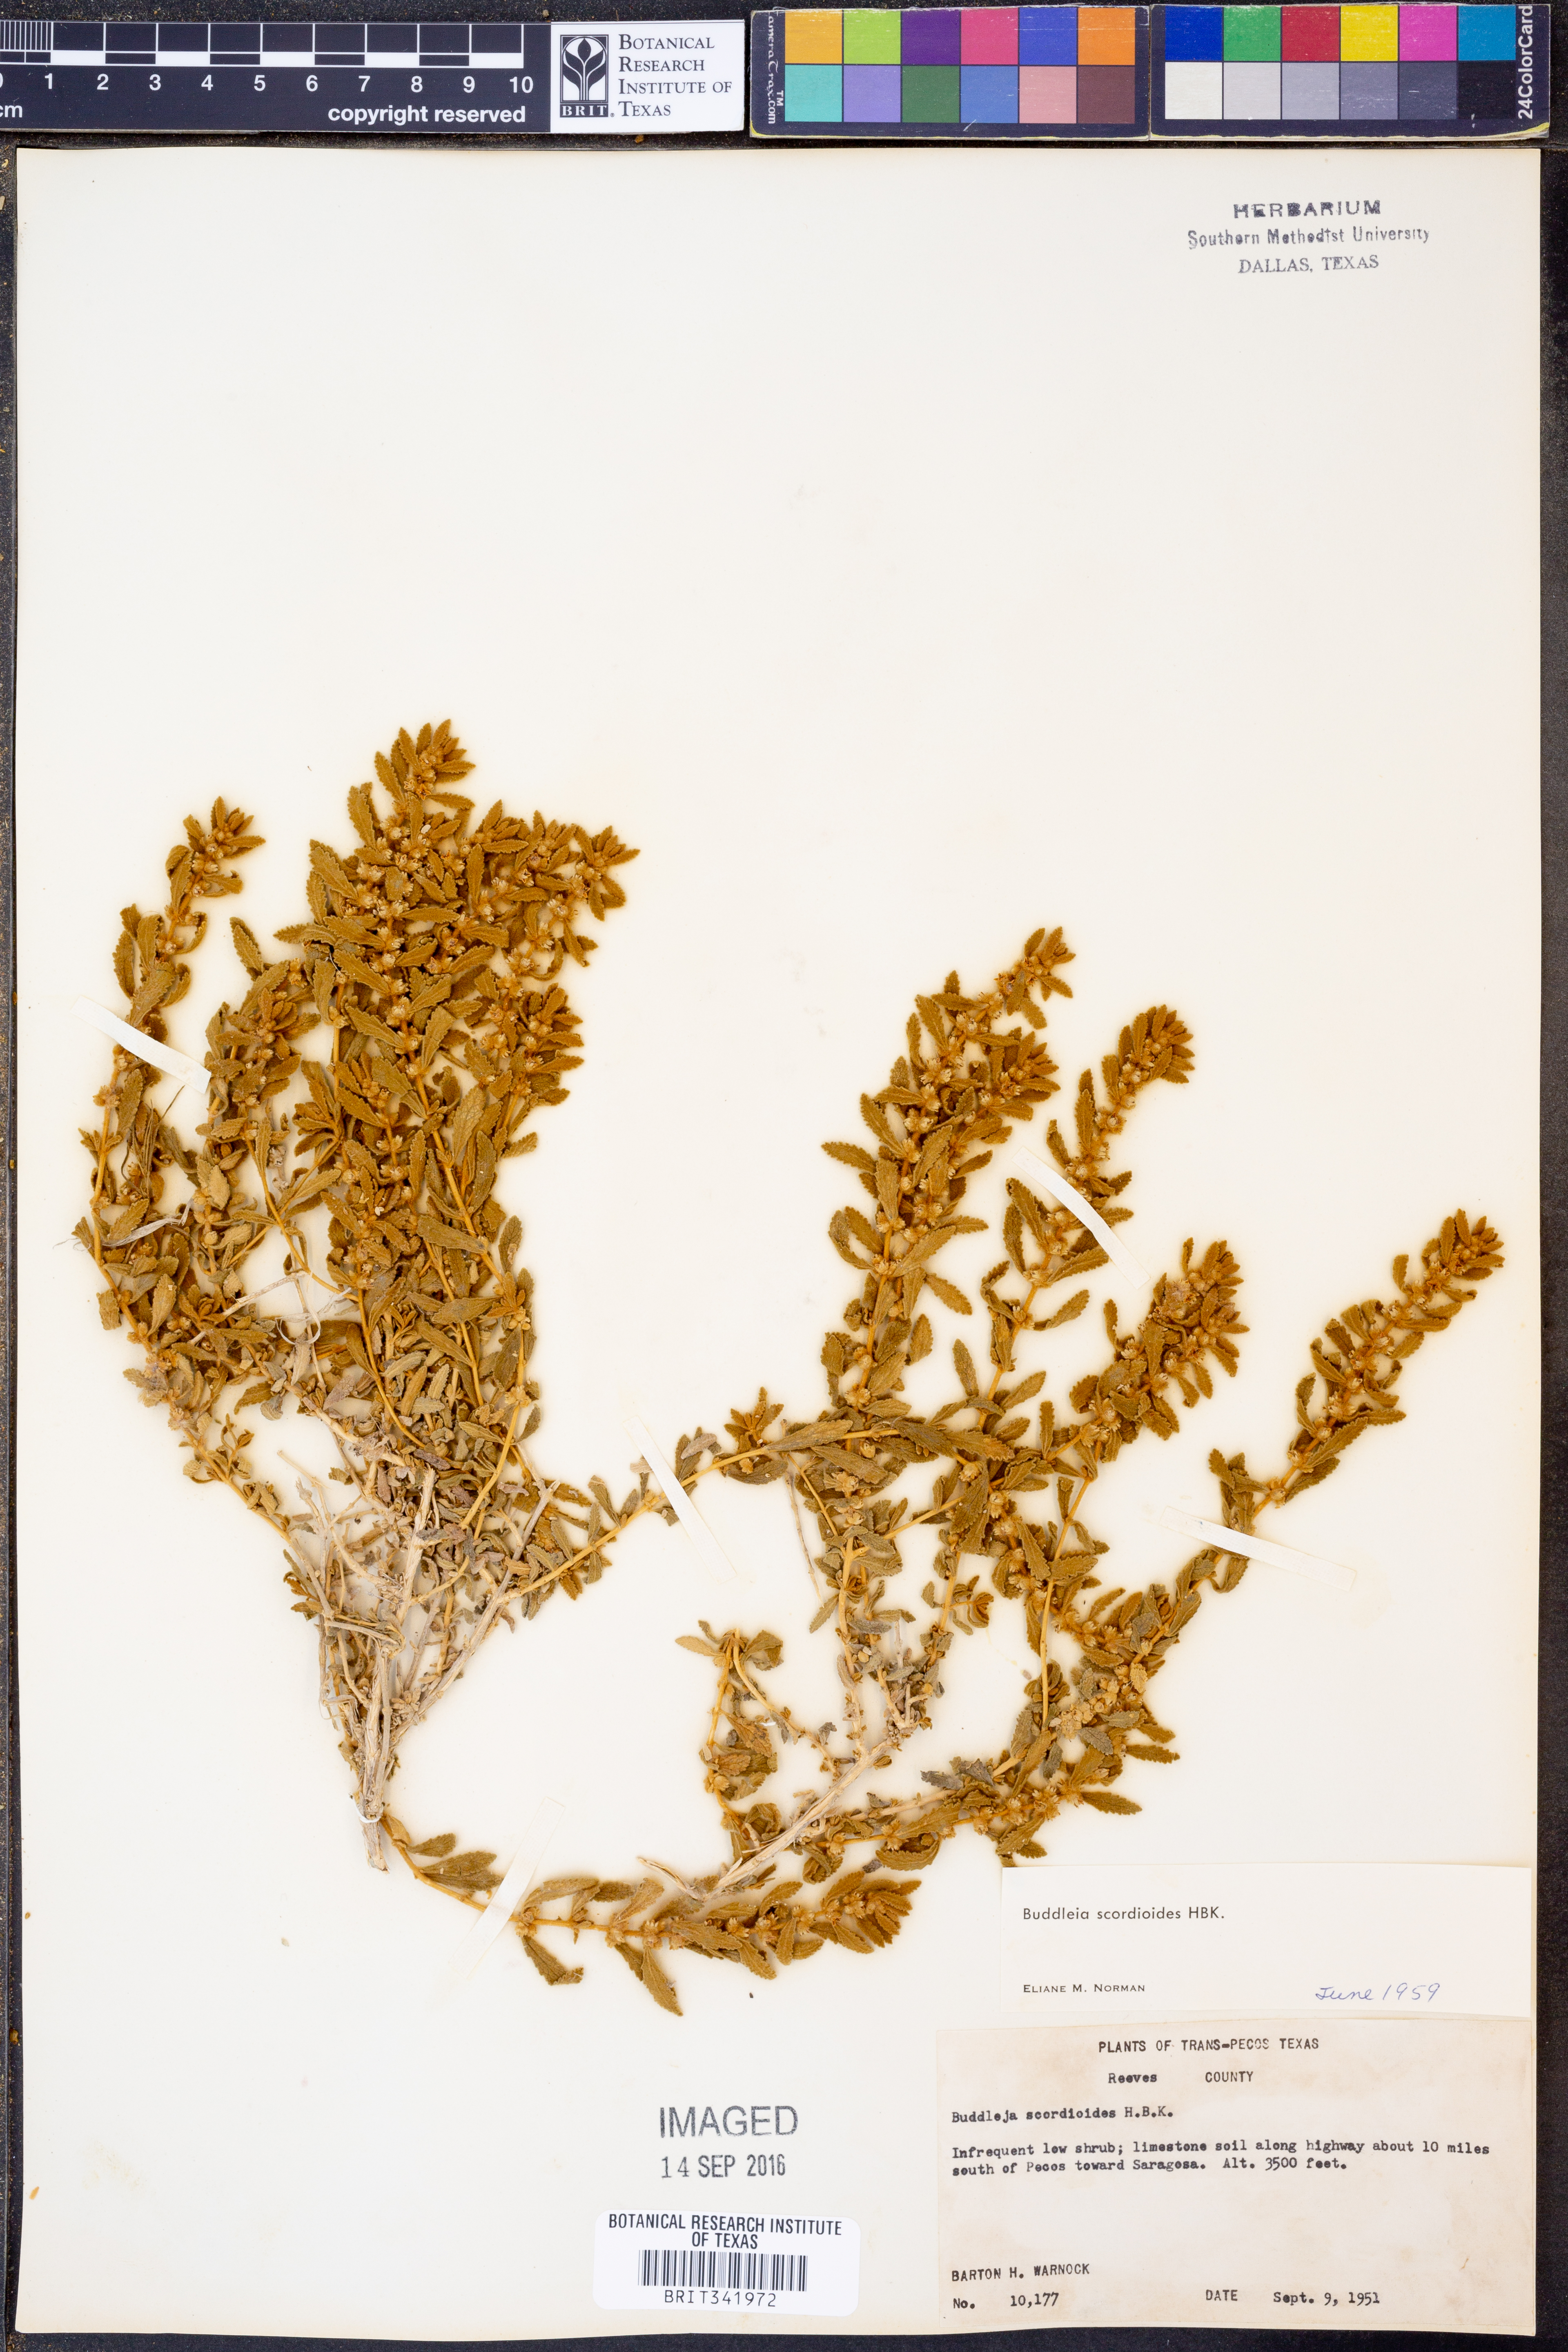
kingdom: Plantae
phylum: Tracheophyta
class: Magnoliopsida
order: Lamiales
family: Scrophulariaceae
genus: Buddleja
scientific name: Buddleja scordioides
